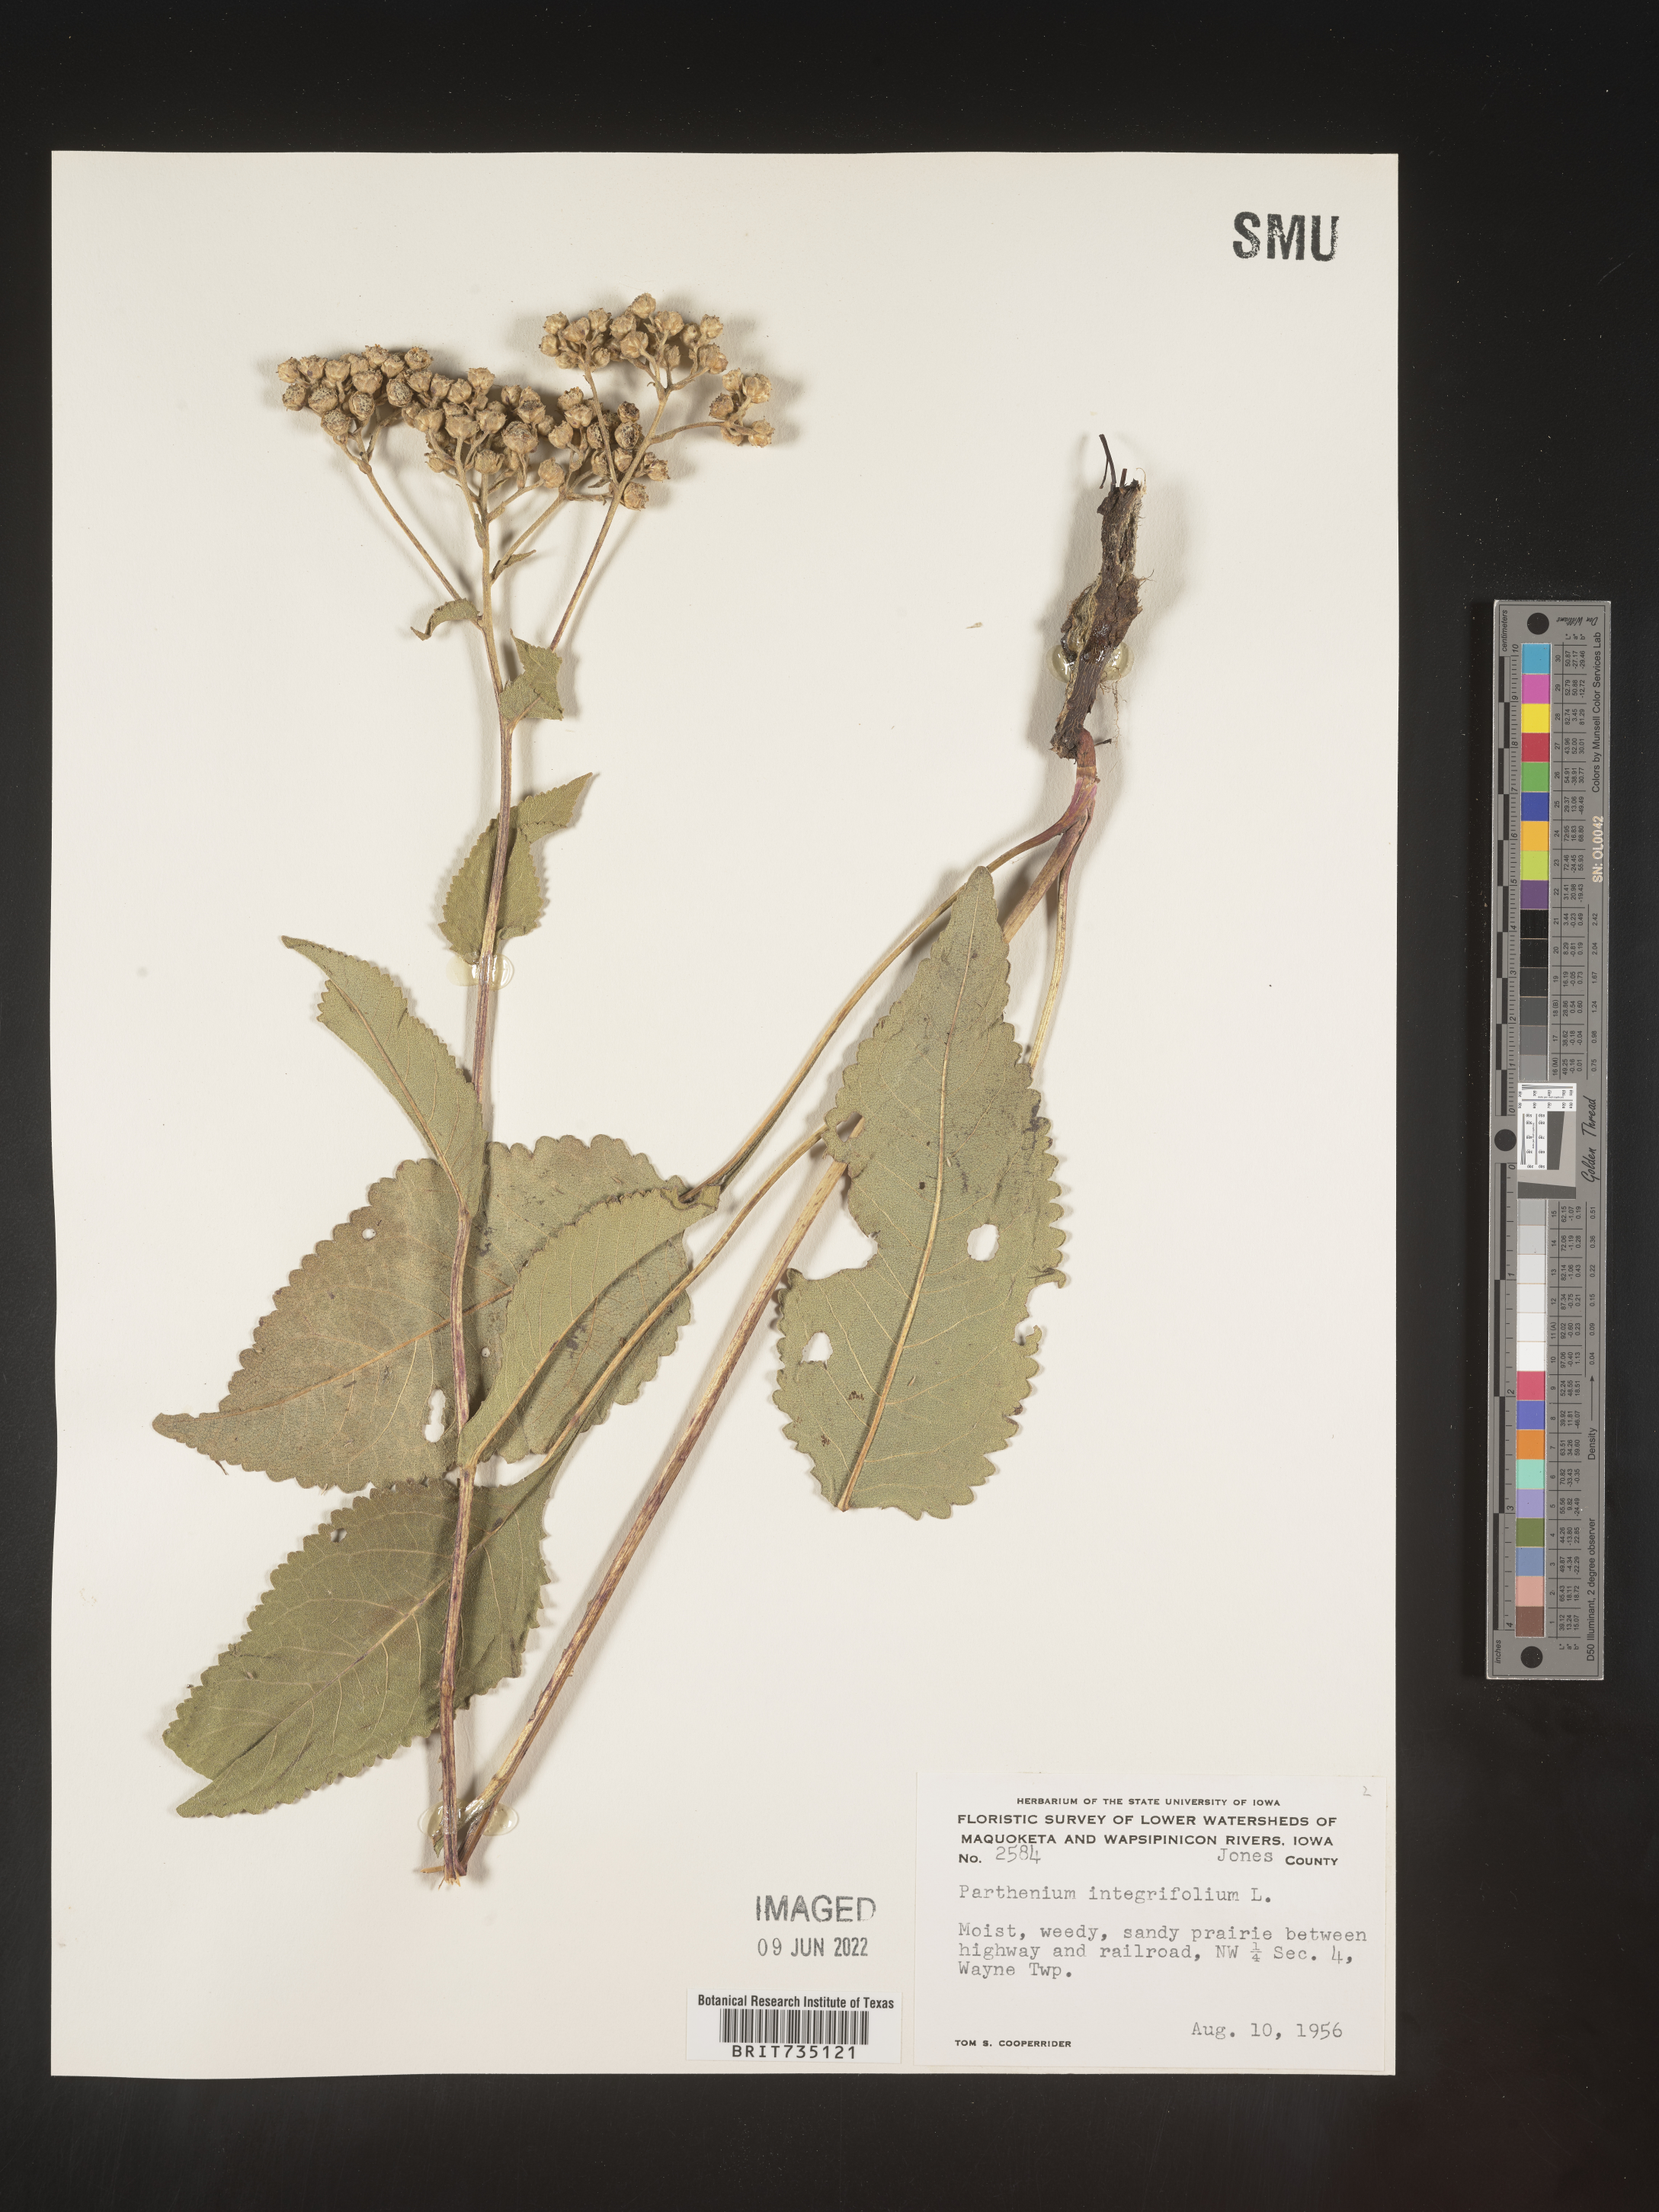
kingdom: Plantae
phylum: Tracheophyta
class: Magnoliopsida
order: Asterales
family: Asteraceae
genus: Parthenium
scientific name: Parthenium integrifolium
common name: American feverfew
